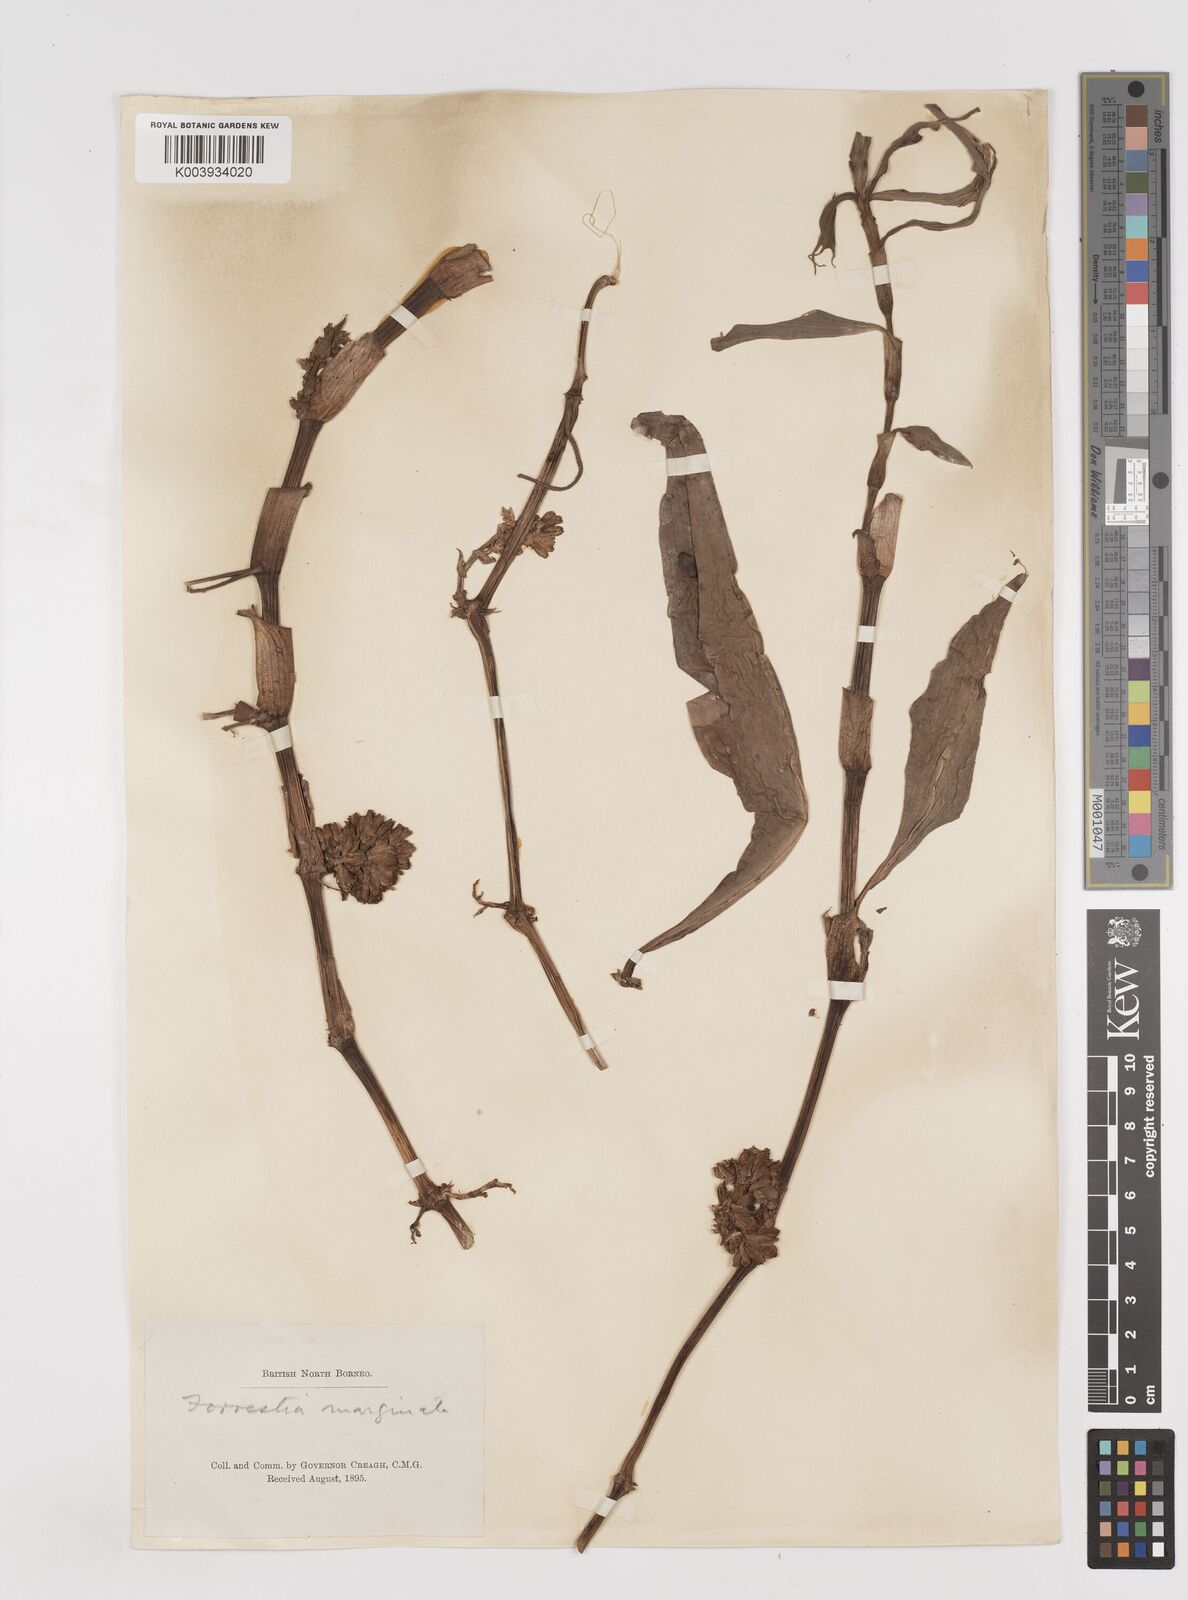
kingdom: Plantae
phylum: Tracheophyta
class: Liliopsida
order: Commelinales
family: Commelinaceae
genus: Amischotolype
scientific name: Amischotolype marginata
